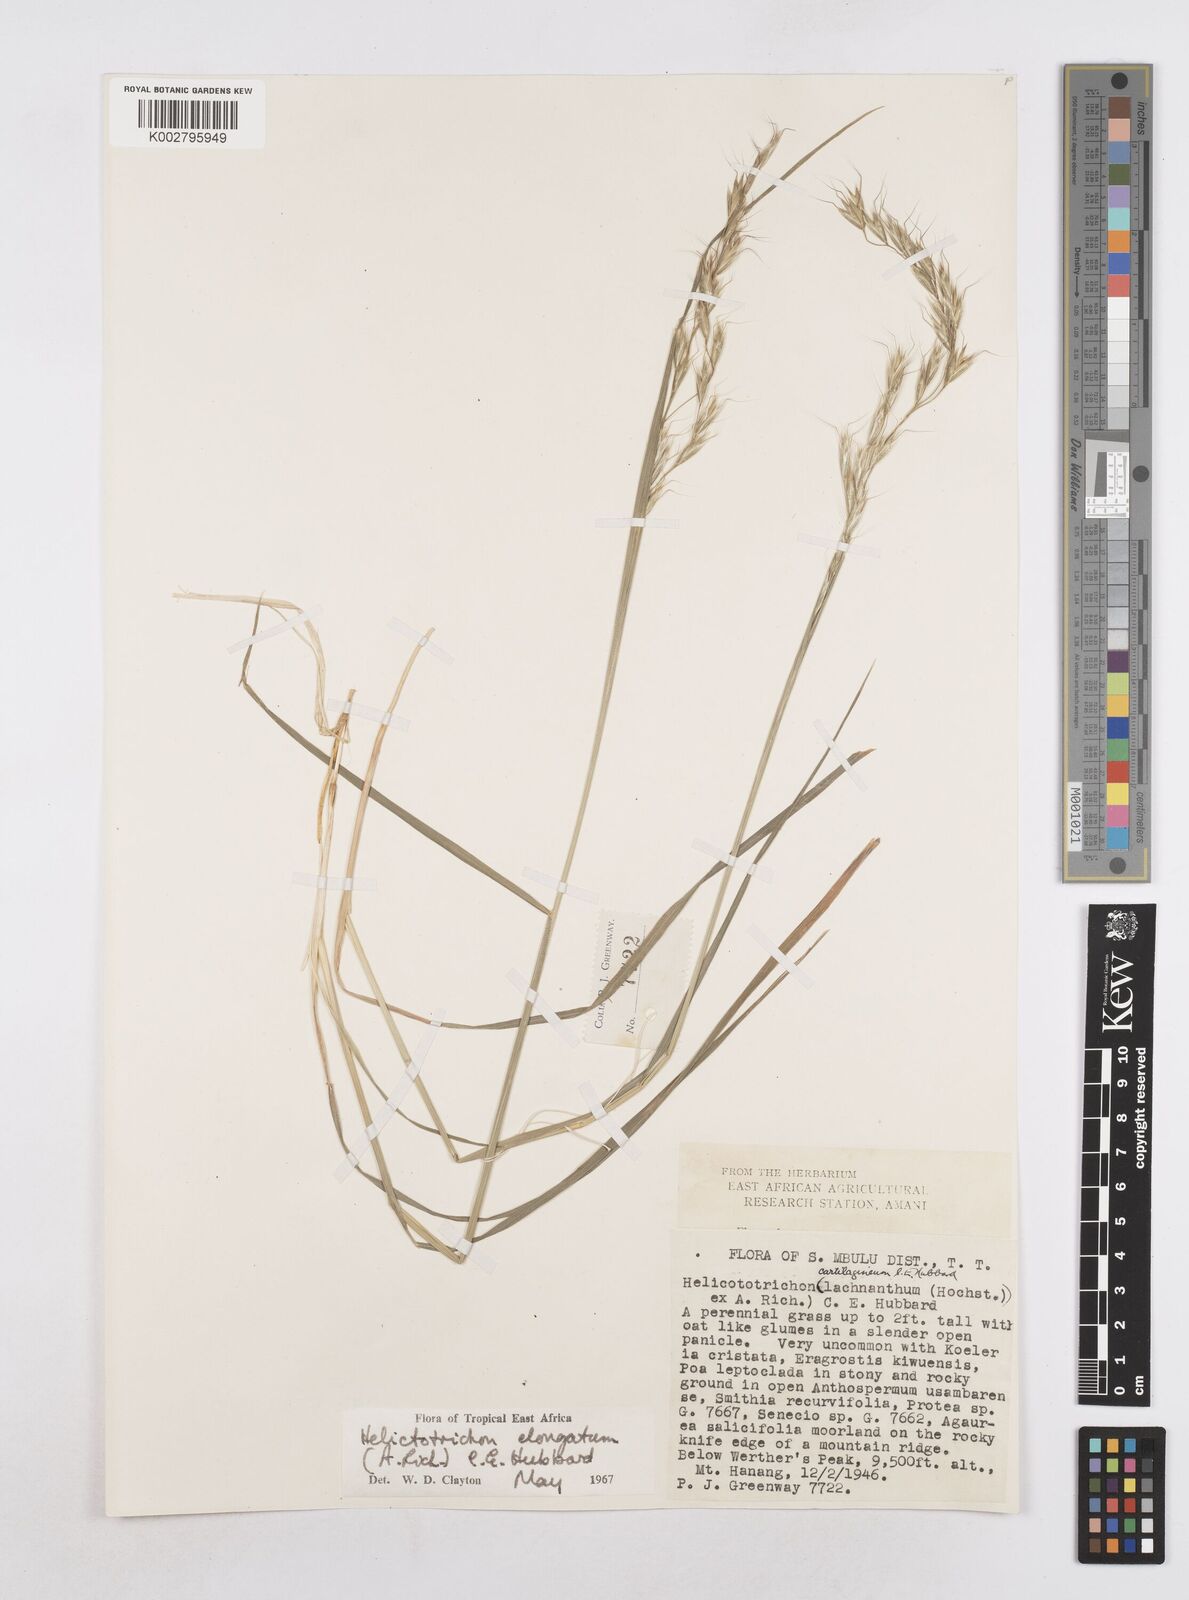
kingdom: Plantae
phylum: Tracheophyta
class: Liliopsida
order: Poales
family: Poaceae
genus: Trisetopsis
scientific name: Trisetopsis elongata
